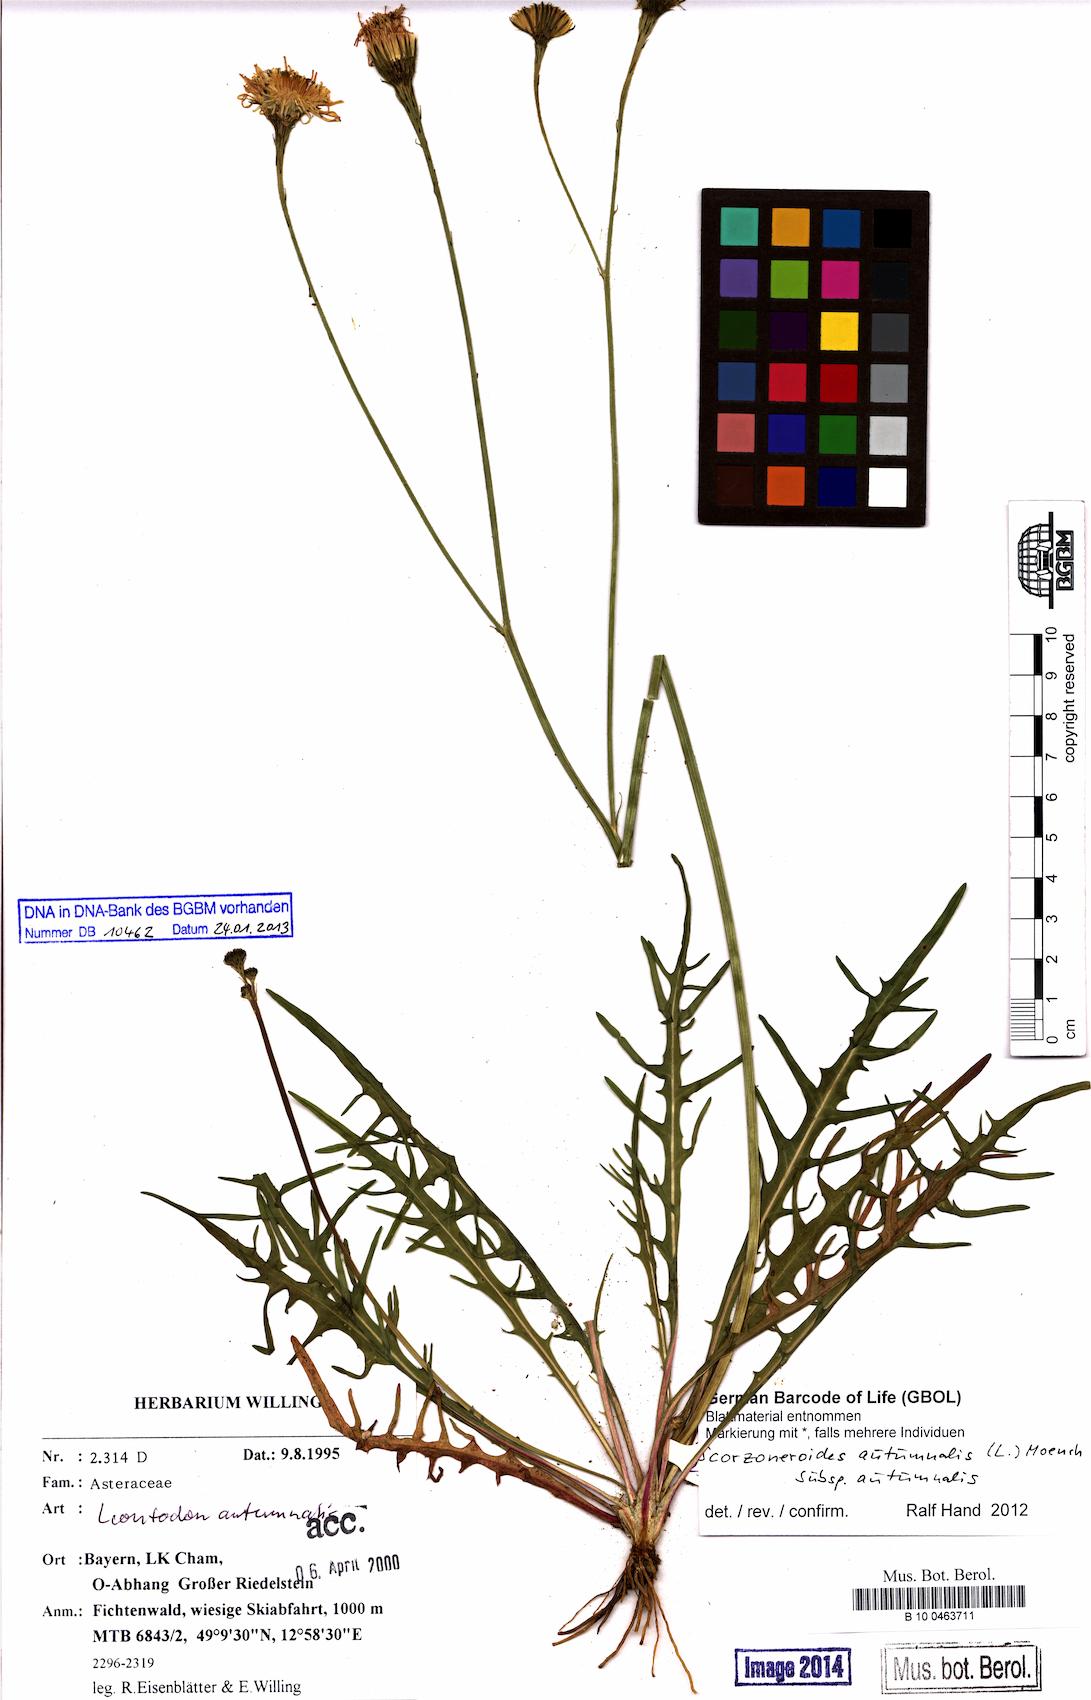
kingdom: Plantae
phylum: Tracheophyta
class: Magnoliopsida
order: Asterales
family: Asteraceae
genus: Scorzoneroides
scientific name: Scorzoneroides autumnalis
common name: Autumn hawkbit
